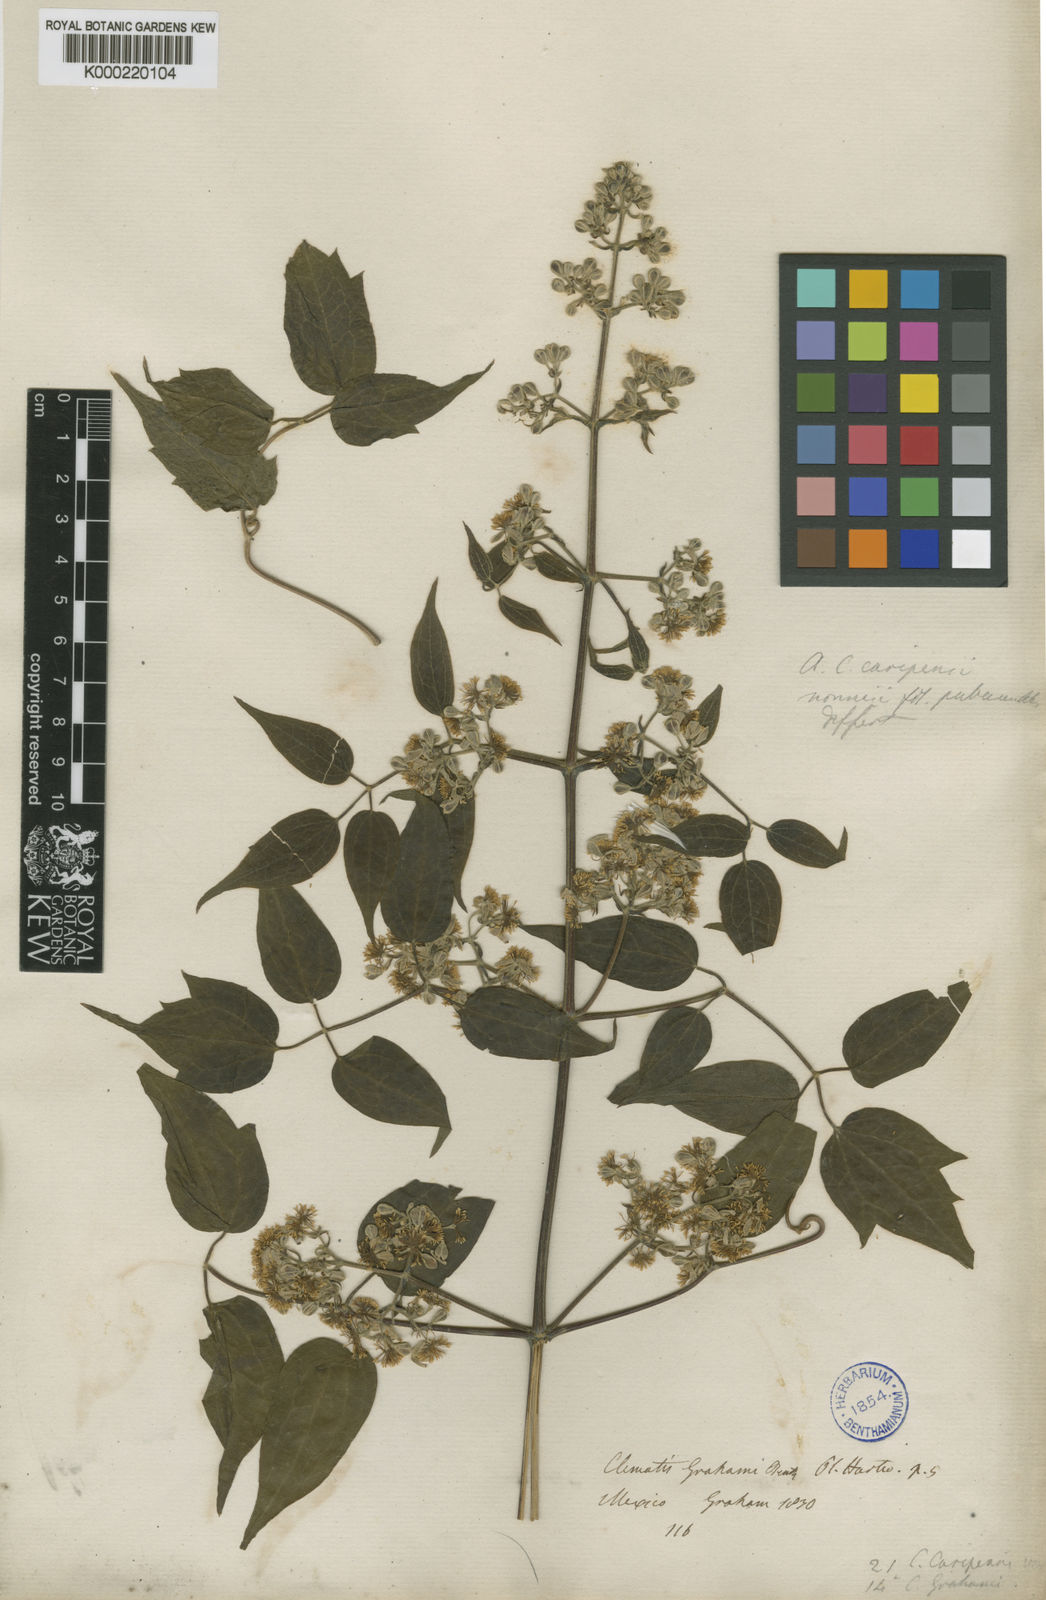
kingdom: Plantae
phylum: Tracheophyta
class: Magnoliopsida
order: Ranunculales
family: Ranunculaceae
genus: Clematis
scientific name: Clematis guadeloupae
